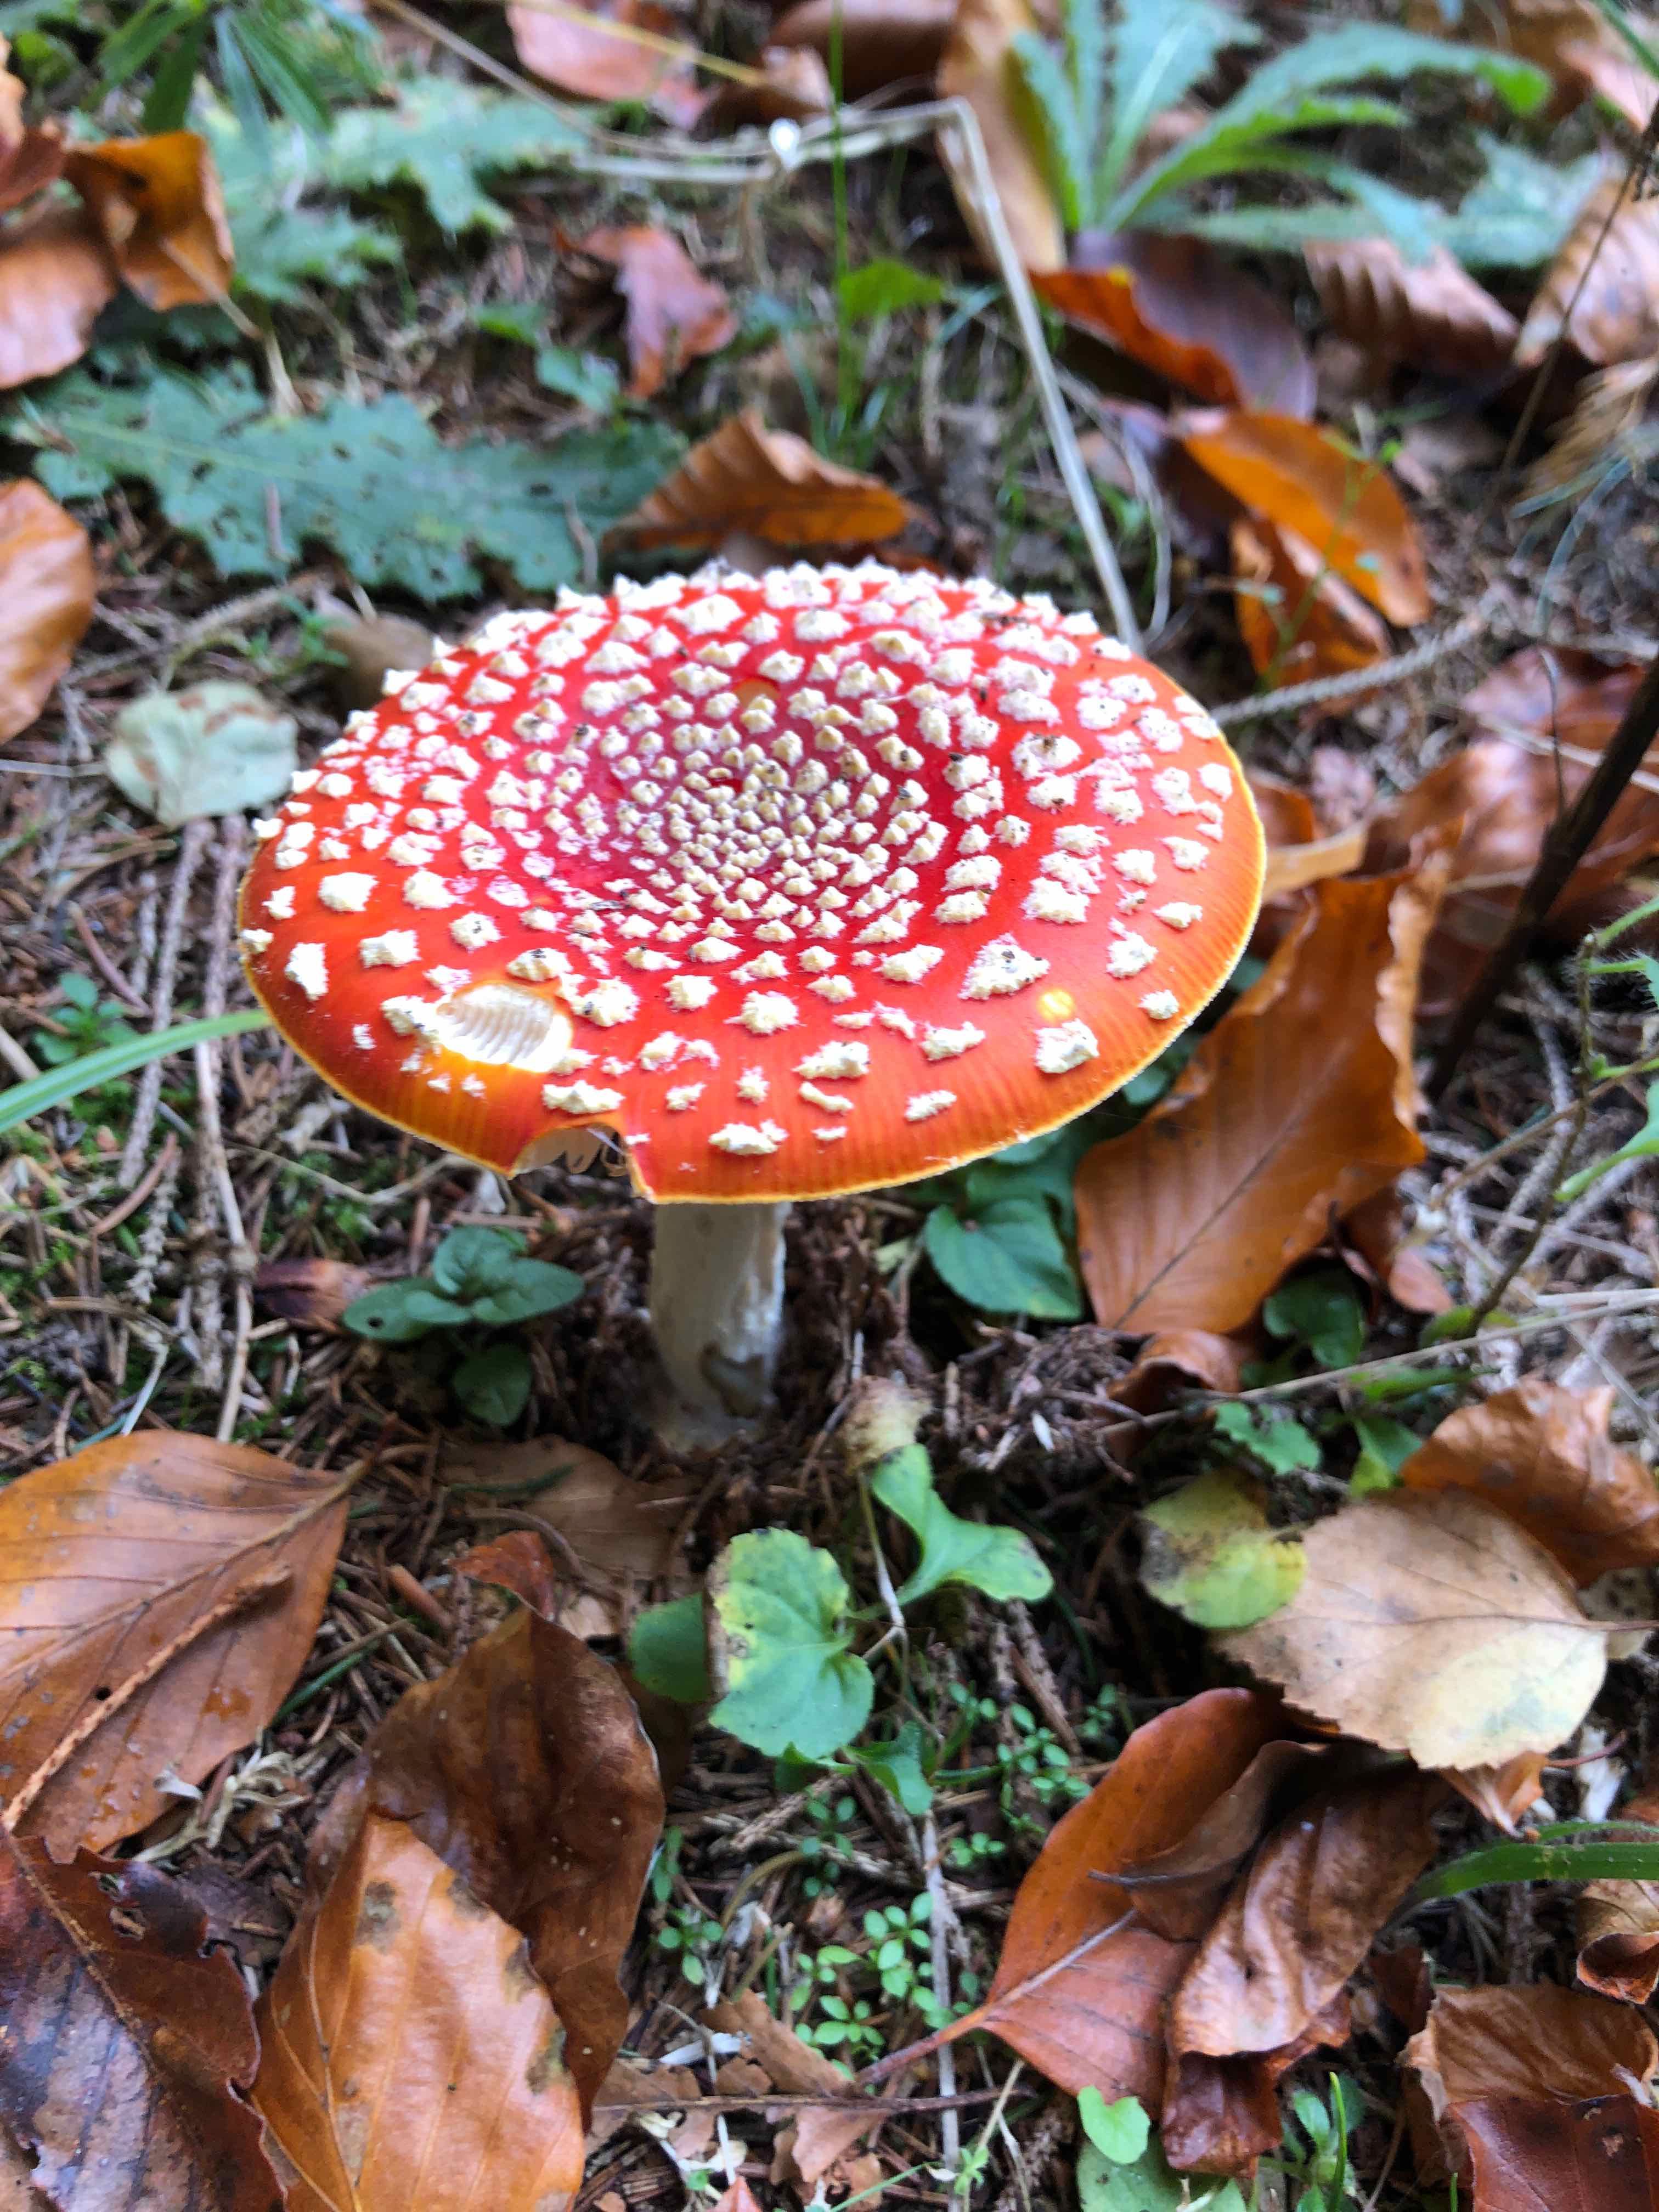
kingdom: Fungi
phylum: Basidiomycota
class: Agaricomycetes
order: Agaricales
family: Amanitaceae
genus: Amanita
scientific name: Amanita muscaria
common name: rød fluesvamp
